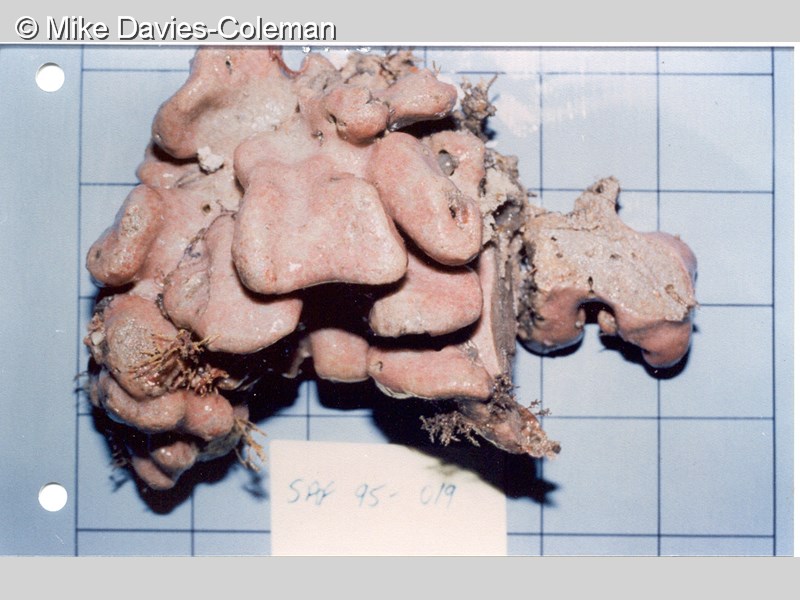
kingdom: Animalia
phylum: Chordata
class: Ascidiacea
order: Aplousobranchia
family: Polyclinidae
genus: Aplidium
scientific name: Aplidium mernooensis
